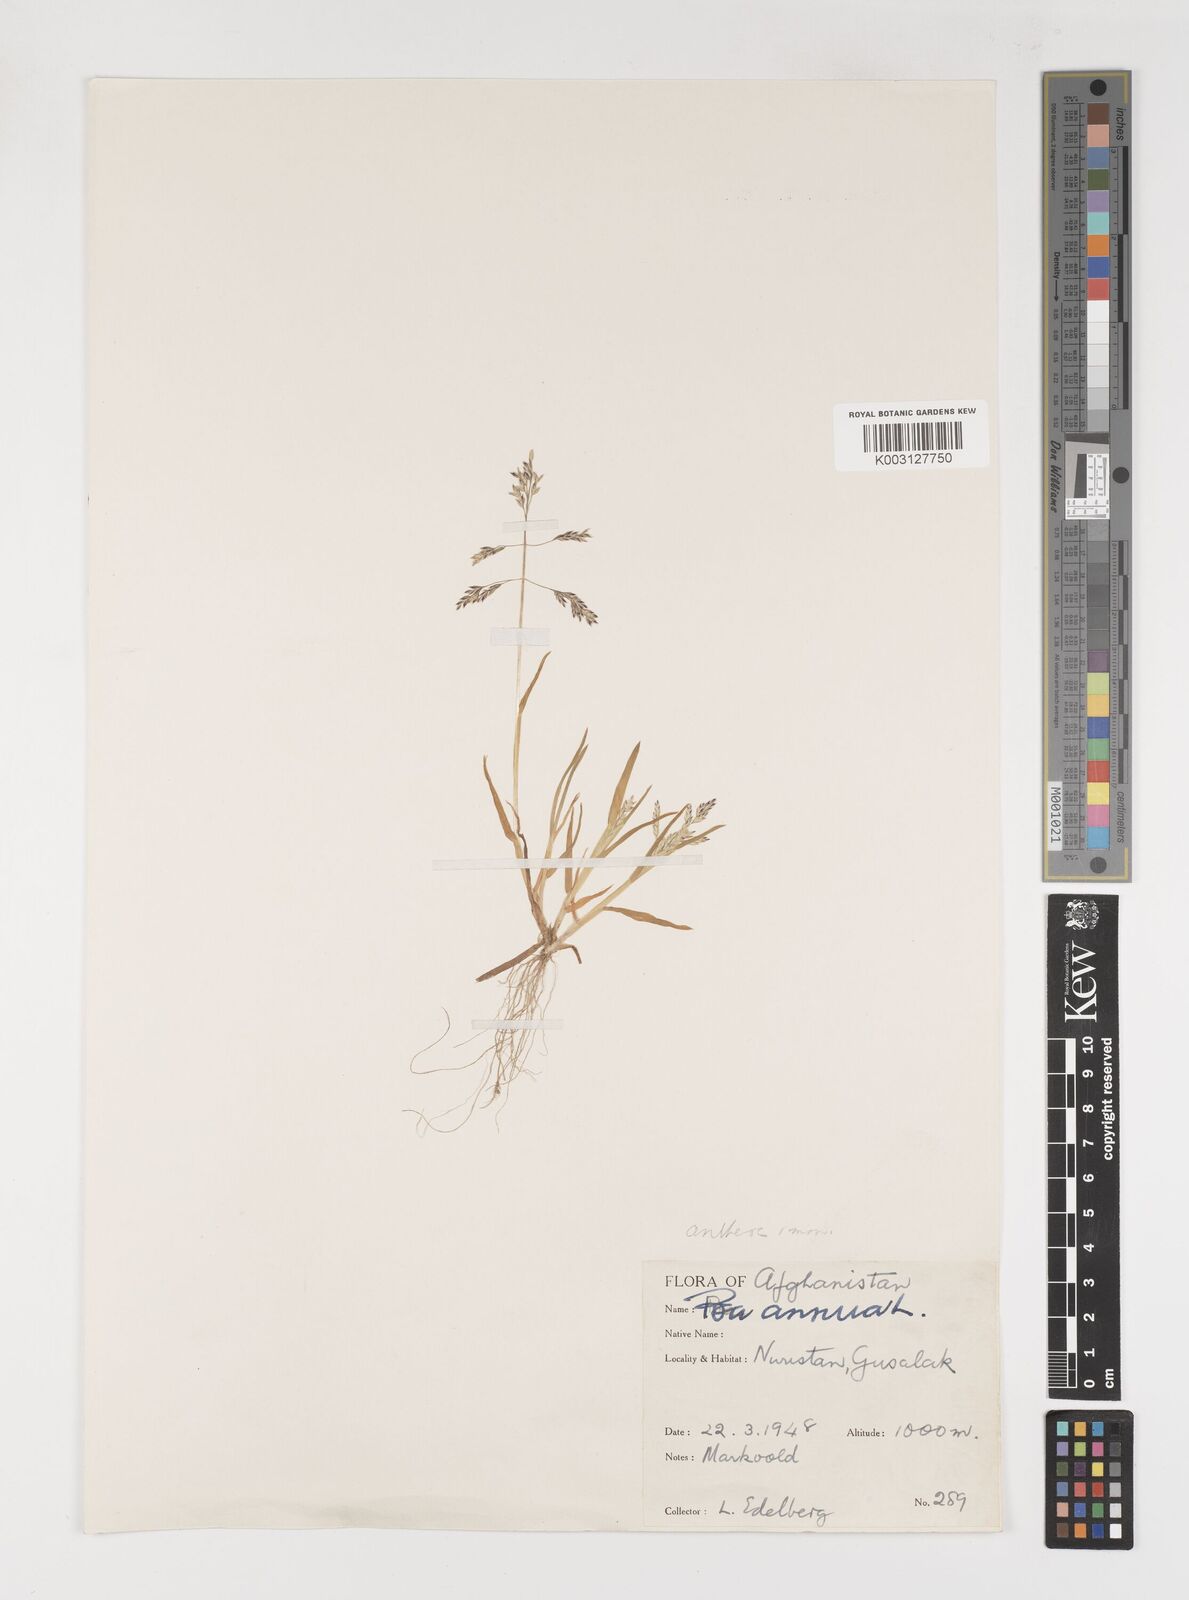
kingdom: Plantae
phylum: Tracheophyta
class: Liliopsida
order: Poales
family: Poaceae
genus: Poa
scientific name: Poa annua
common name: Annual bluegrass
